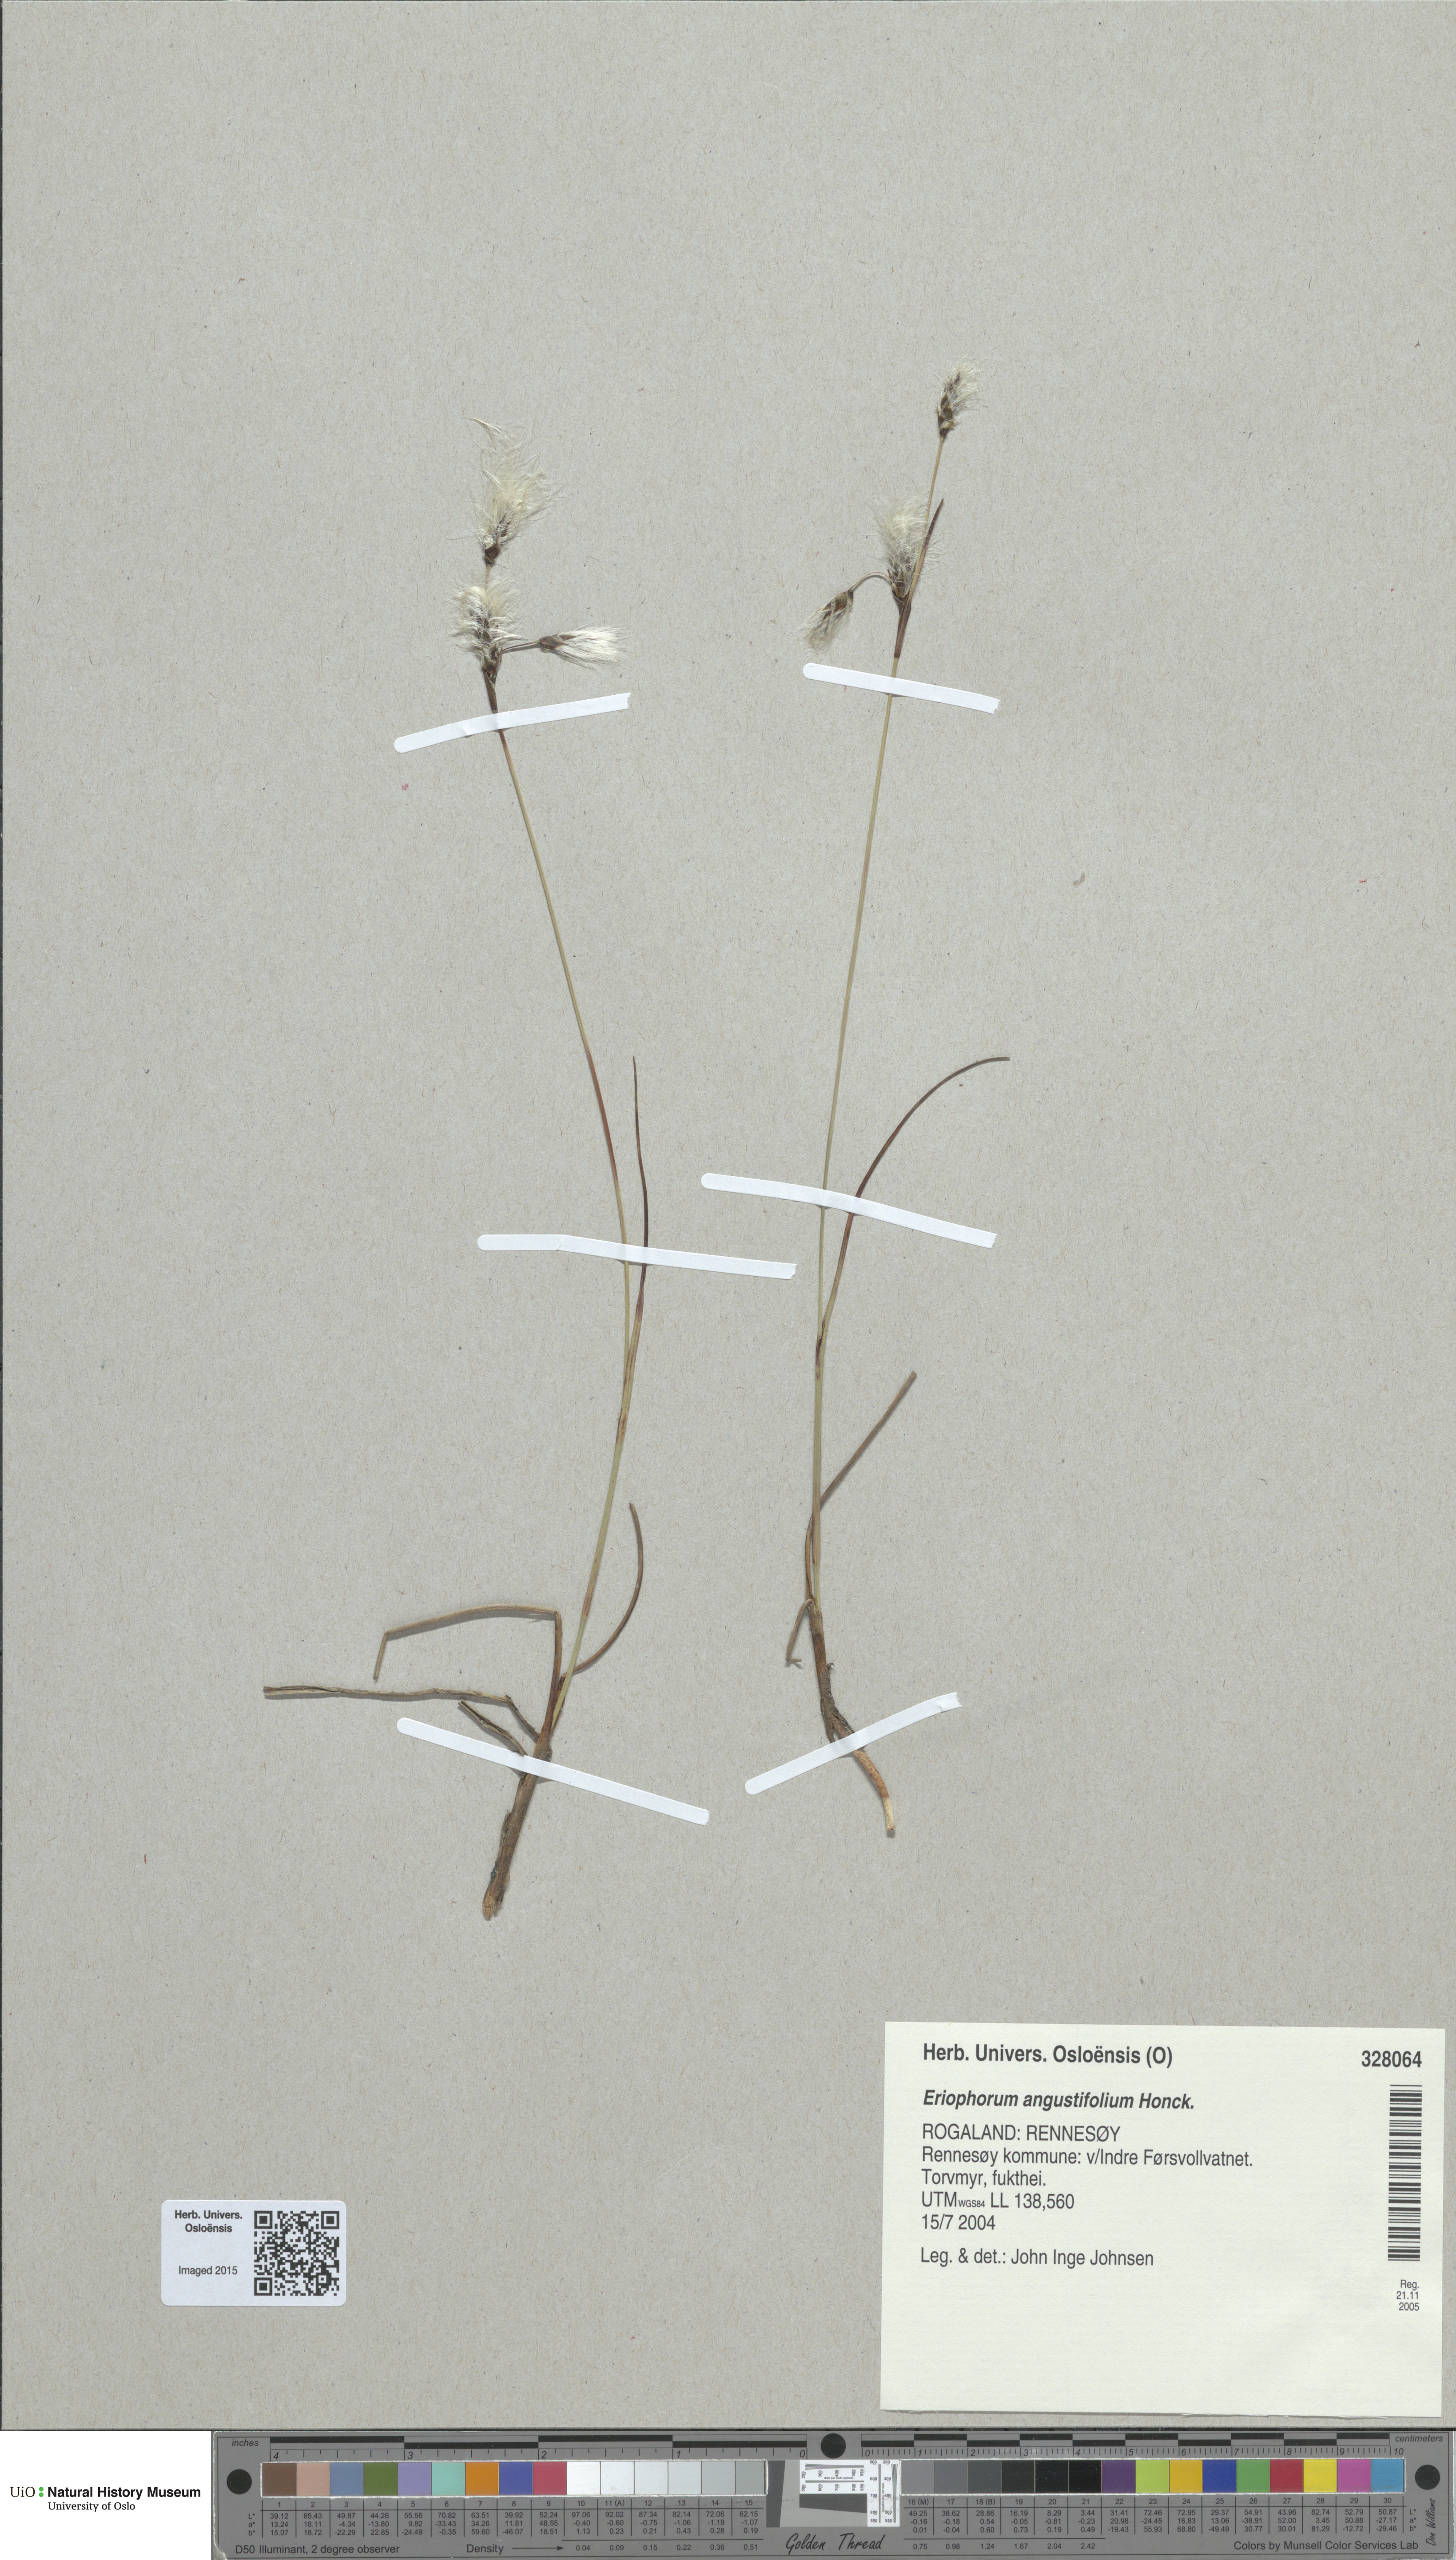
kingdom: Plantae
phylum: Tracheophyta
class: Liliopsida
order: Poales
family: Cyperaceae
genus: Eriophorum
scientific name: Eriophorum angustifolium
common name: Common cottongrass
